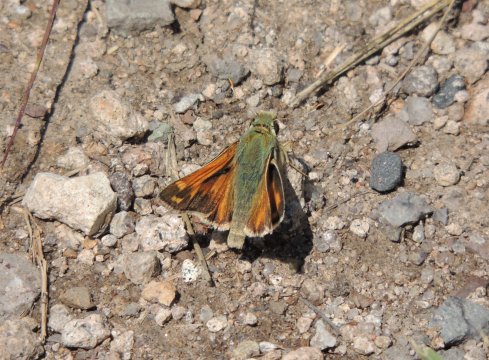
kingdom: Animalia
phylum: Arthropoda
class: Insecta
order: Lepidoptera
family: Hesperiidae
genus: Hesperia
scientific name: Hesperia juba
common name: Juba Skipper
